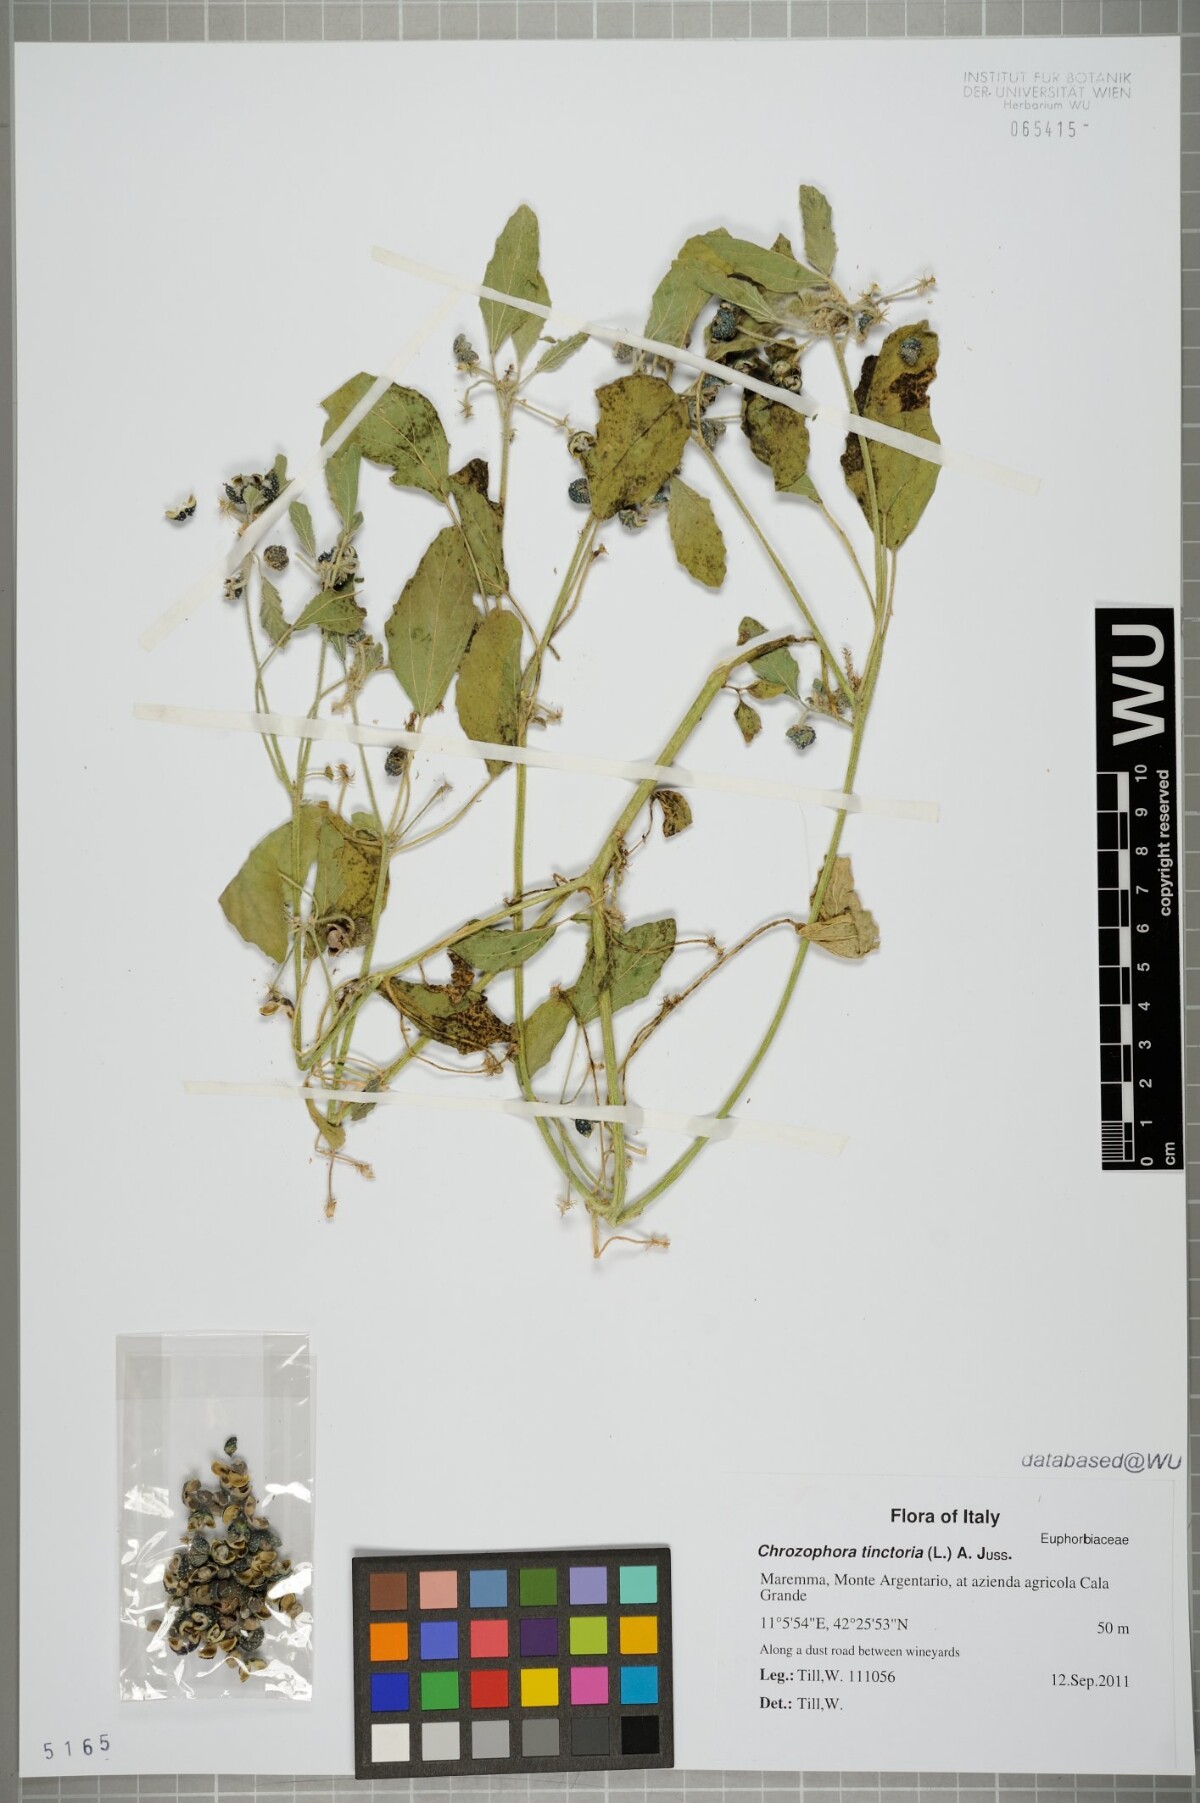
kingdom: Plantae
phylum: Tracheophyta
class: Magnoliopsida
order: Malpighiales
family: Euphorbiaceae
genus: Chrozophora
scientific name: Chrozophora tinctoria
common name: Dyer's litmus
